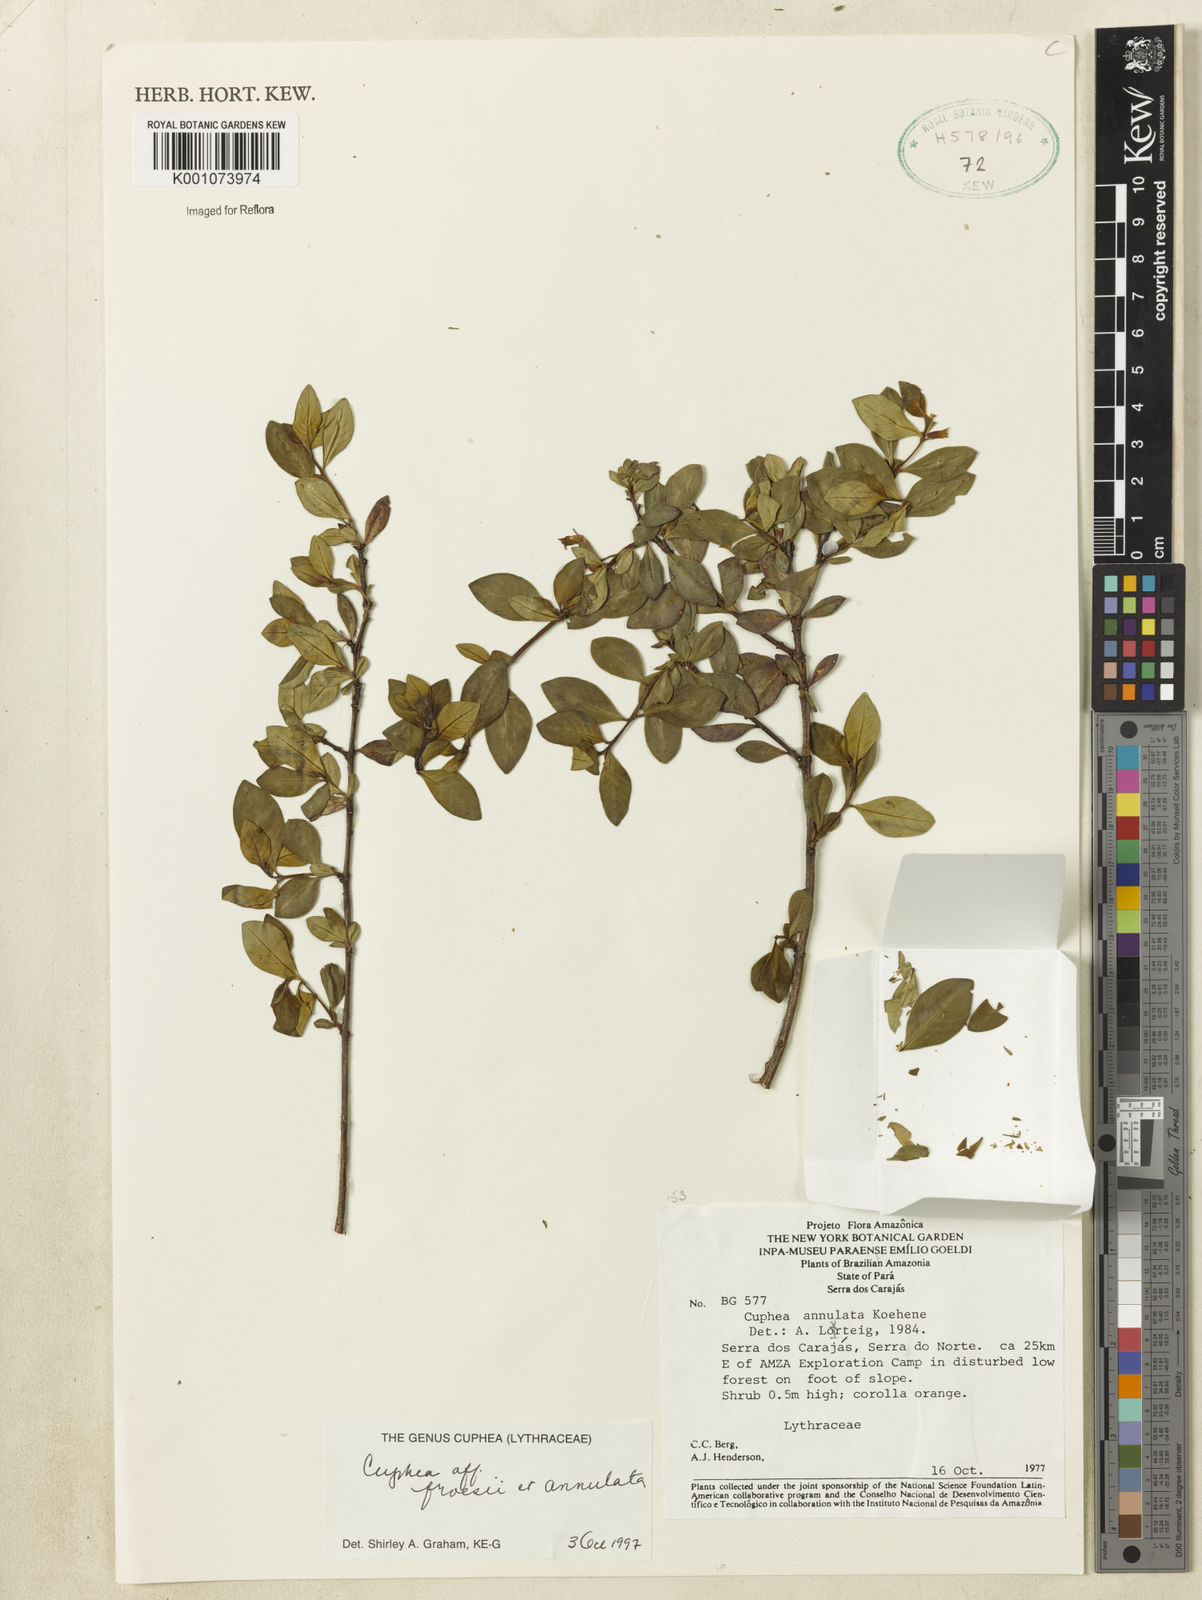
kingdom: Plantae
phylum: Tracheophyta
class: Magnoliopsida
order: Myrtales
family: Lythraceae
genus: Cuphea
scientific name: Cuphea froesii
